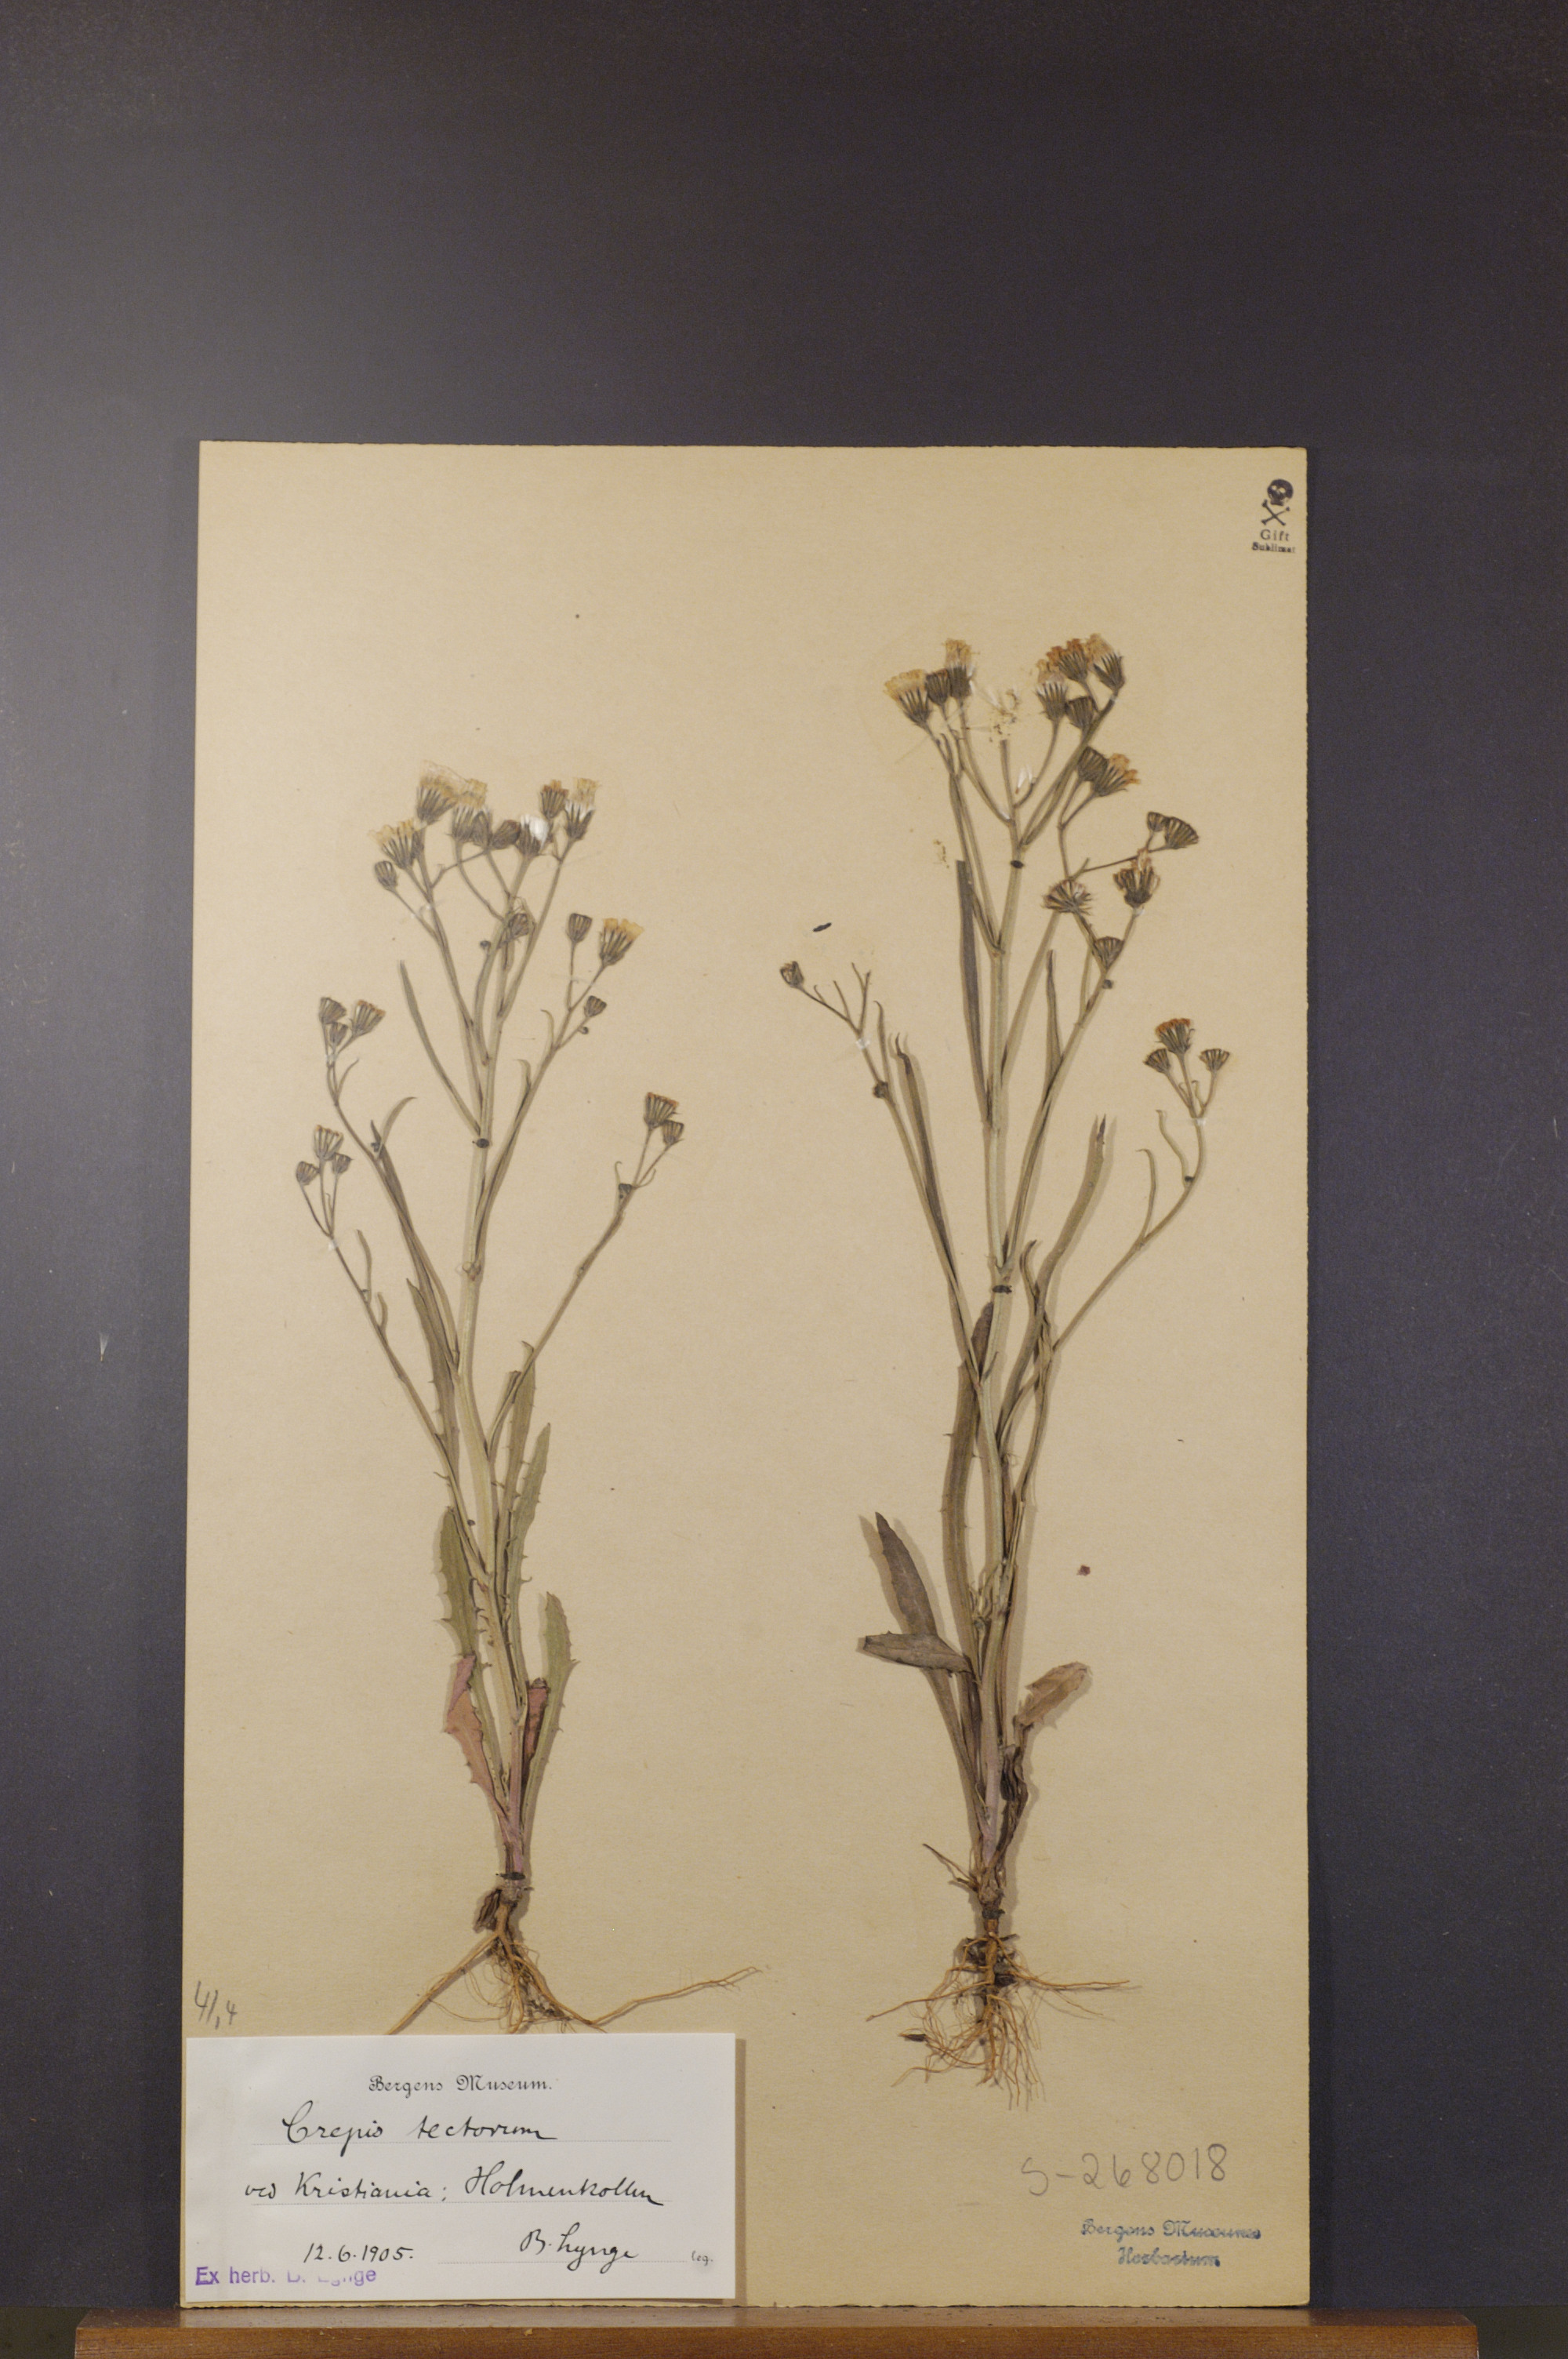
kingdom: Plantae
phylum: Tracheophyta
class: Magnoliopsida
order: Asterales
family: Asteraceae
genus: Crepis
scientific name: Crepis tectorum
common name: Narrow-leaved hawk's-beard
